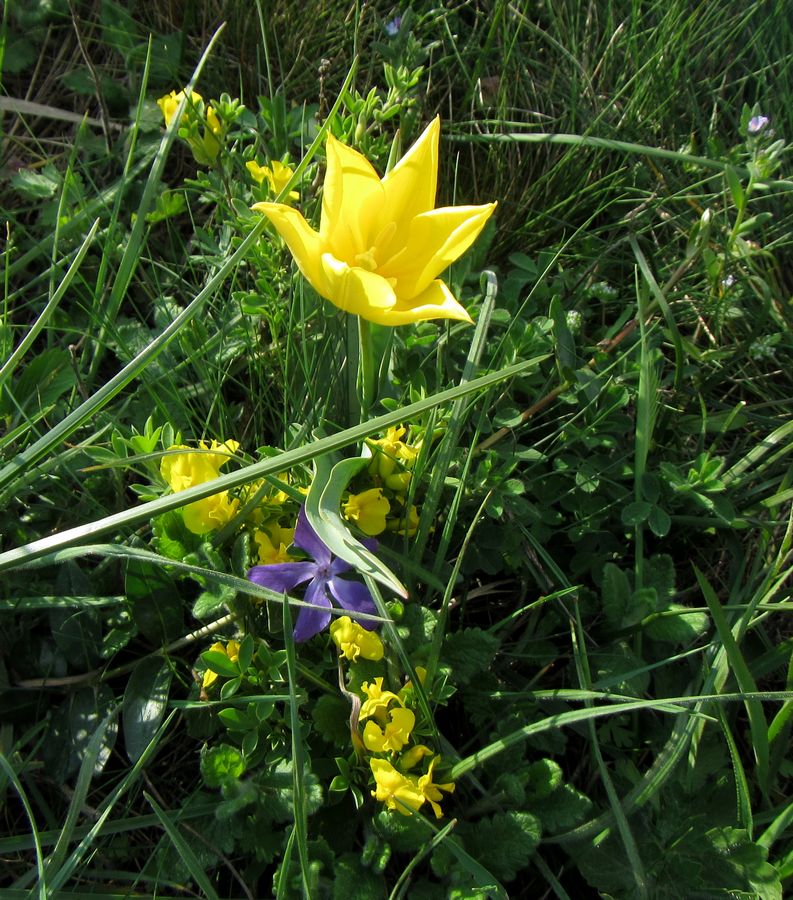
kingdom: Plantae
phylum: Tracheophyta
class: Liliopsida
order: Liliales
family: Liliaceae
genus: Tulipa
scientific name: Tulipa suaveolens
